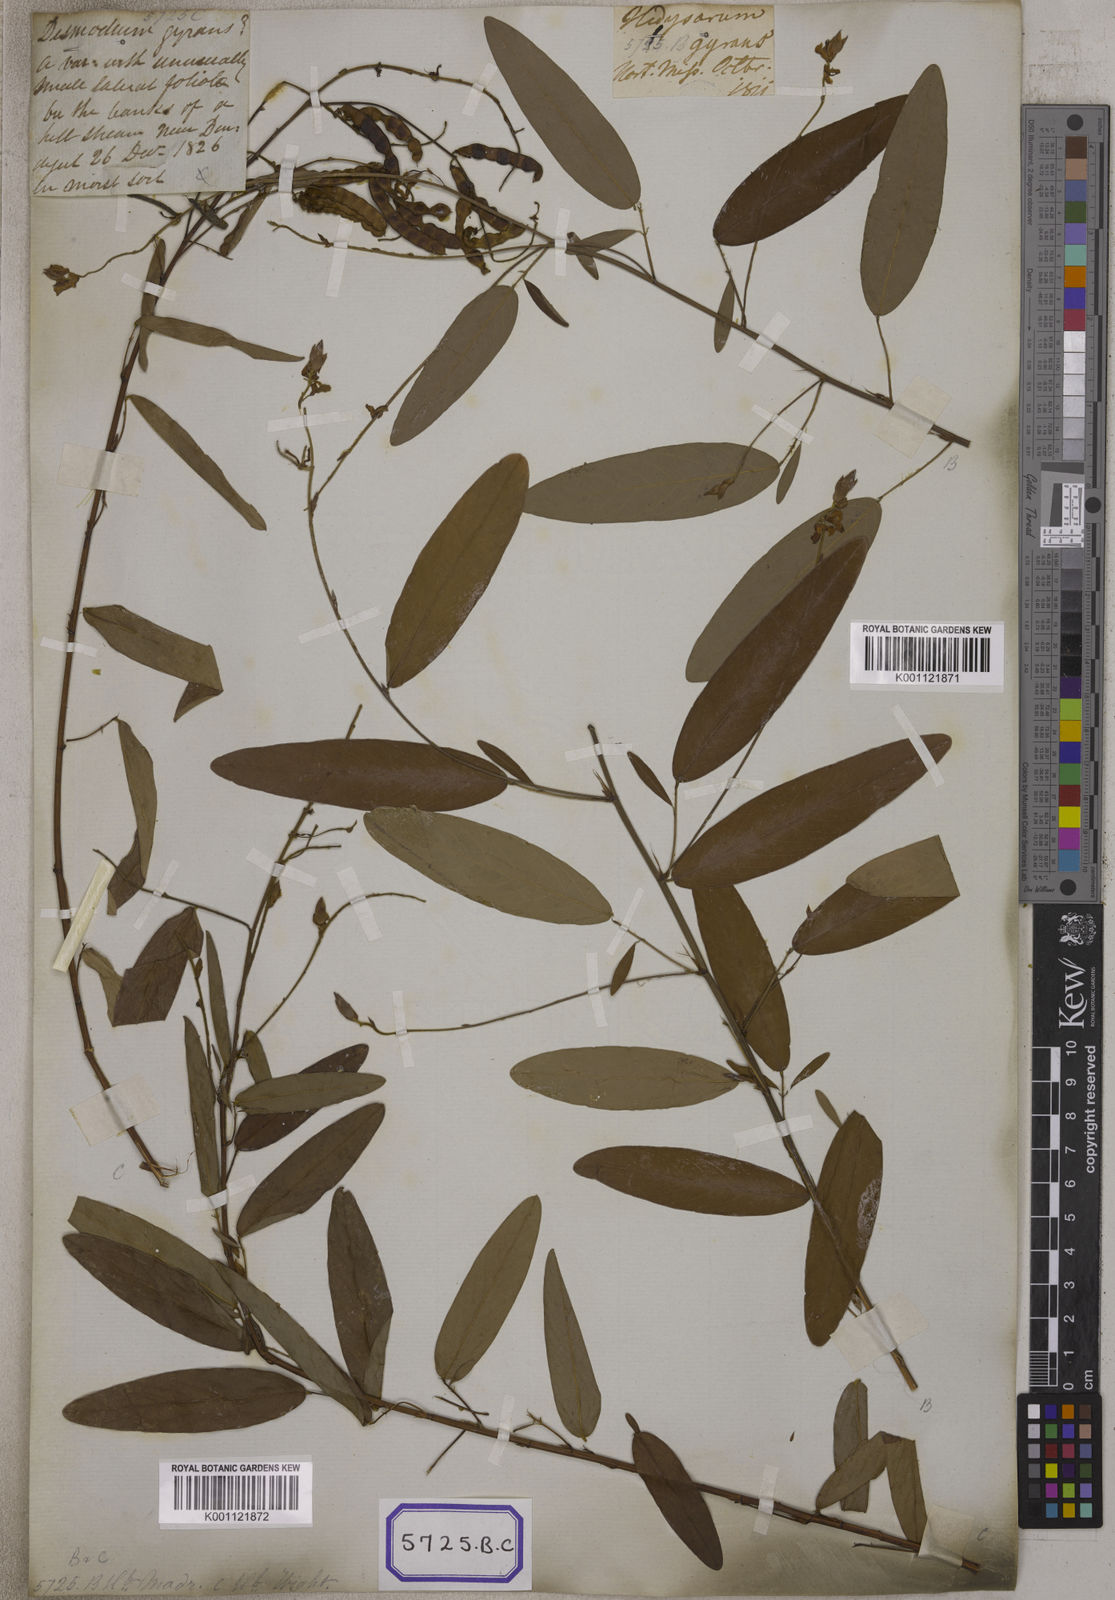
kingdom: Plantae
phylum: Tracheophyta
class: Magnoliopsida
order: Fabales
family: Fabaceae
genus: Codariocalyx
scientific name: Codariocalyx motorius
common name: Telegraph-plant
